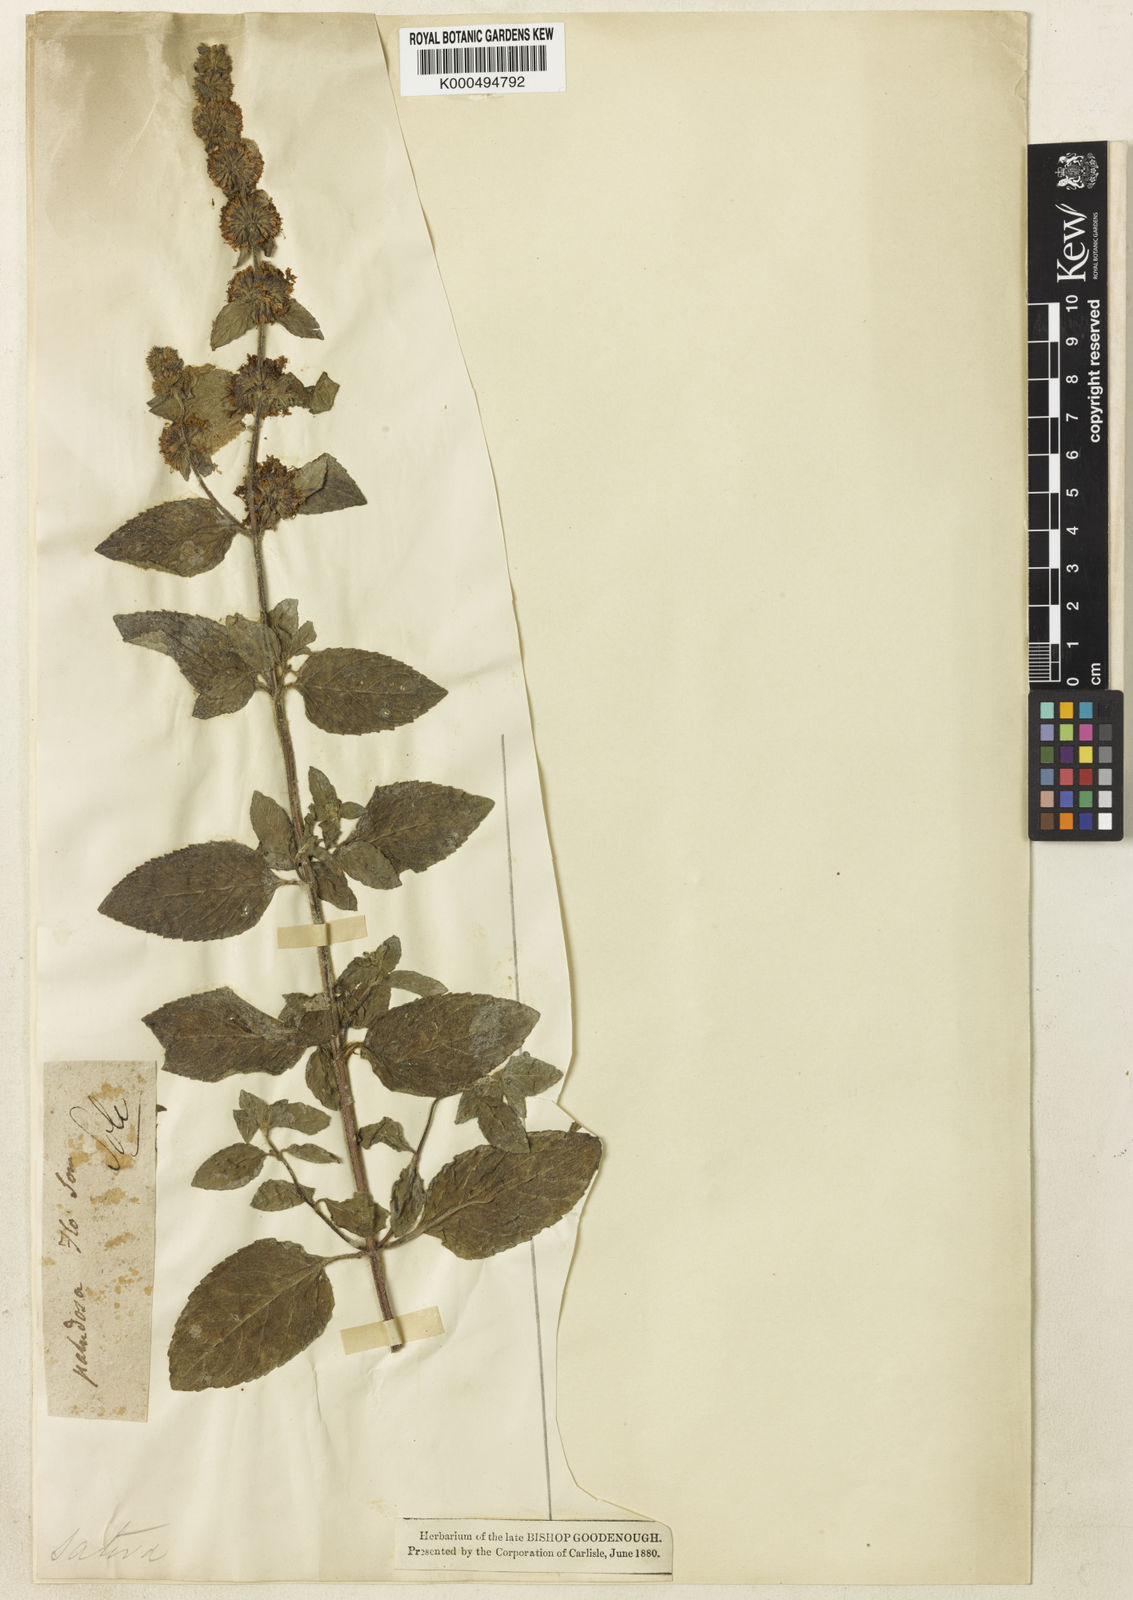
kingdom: Plantae
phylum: Tracheophyta
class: Magnoliopsida
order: Lamiales
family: Lamiaceae
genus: Mentha
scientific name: Mentha verticillata
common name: Mint
